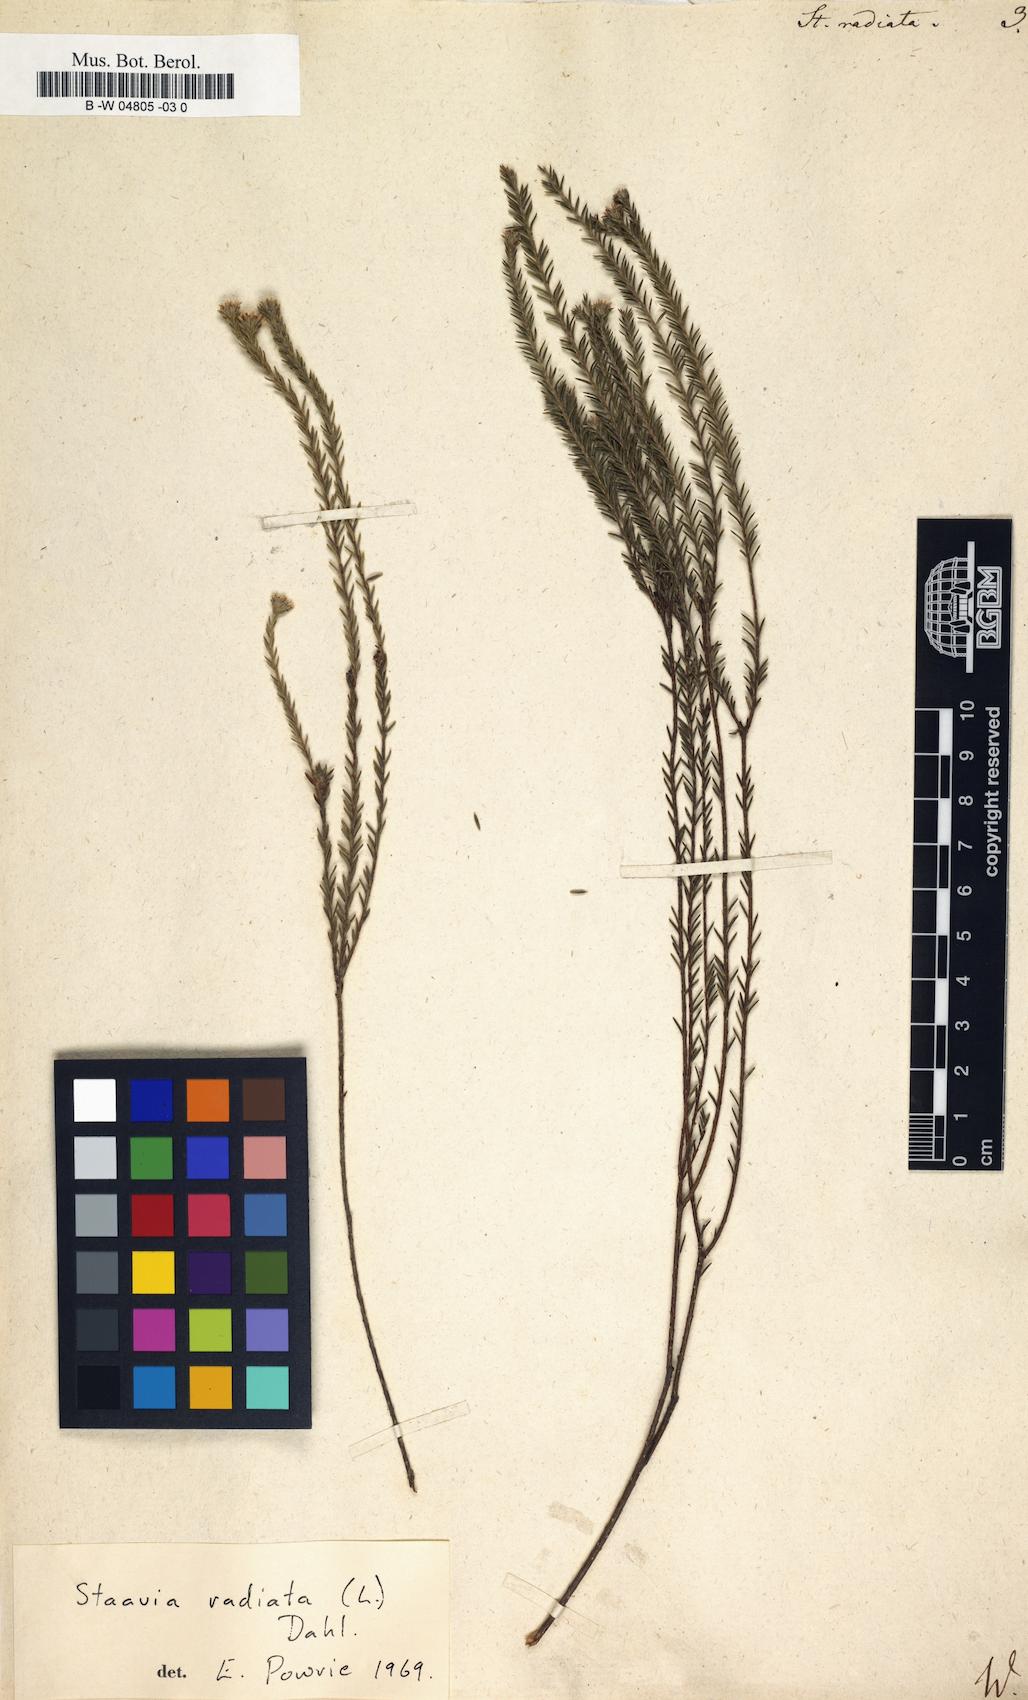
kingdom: Plantae
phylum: Tracheophyta
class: Magnoliopsida
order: Bruniales
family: Bruniaceae
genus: Staavia
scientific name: Staavia radiata
